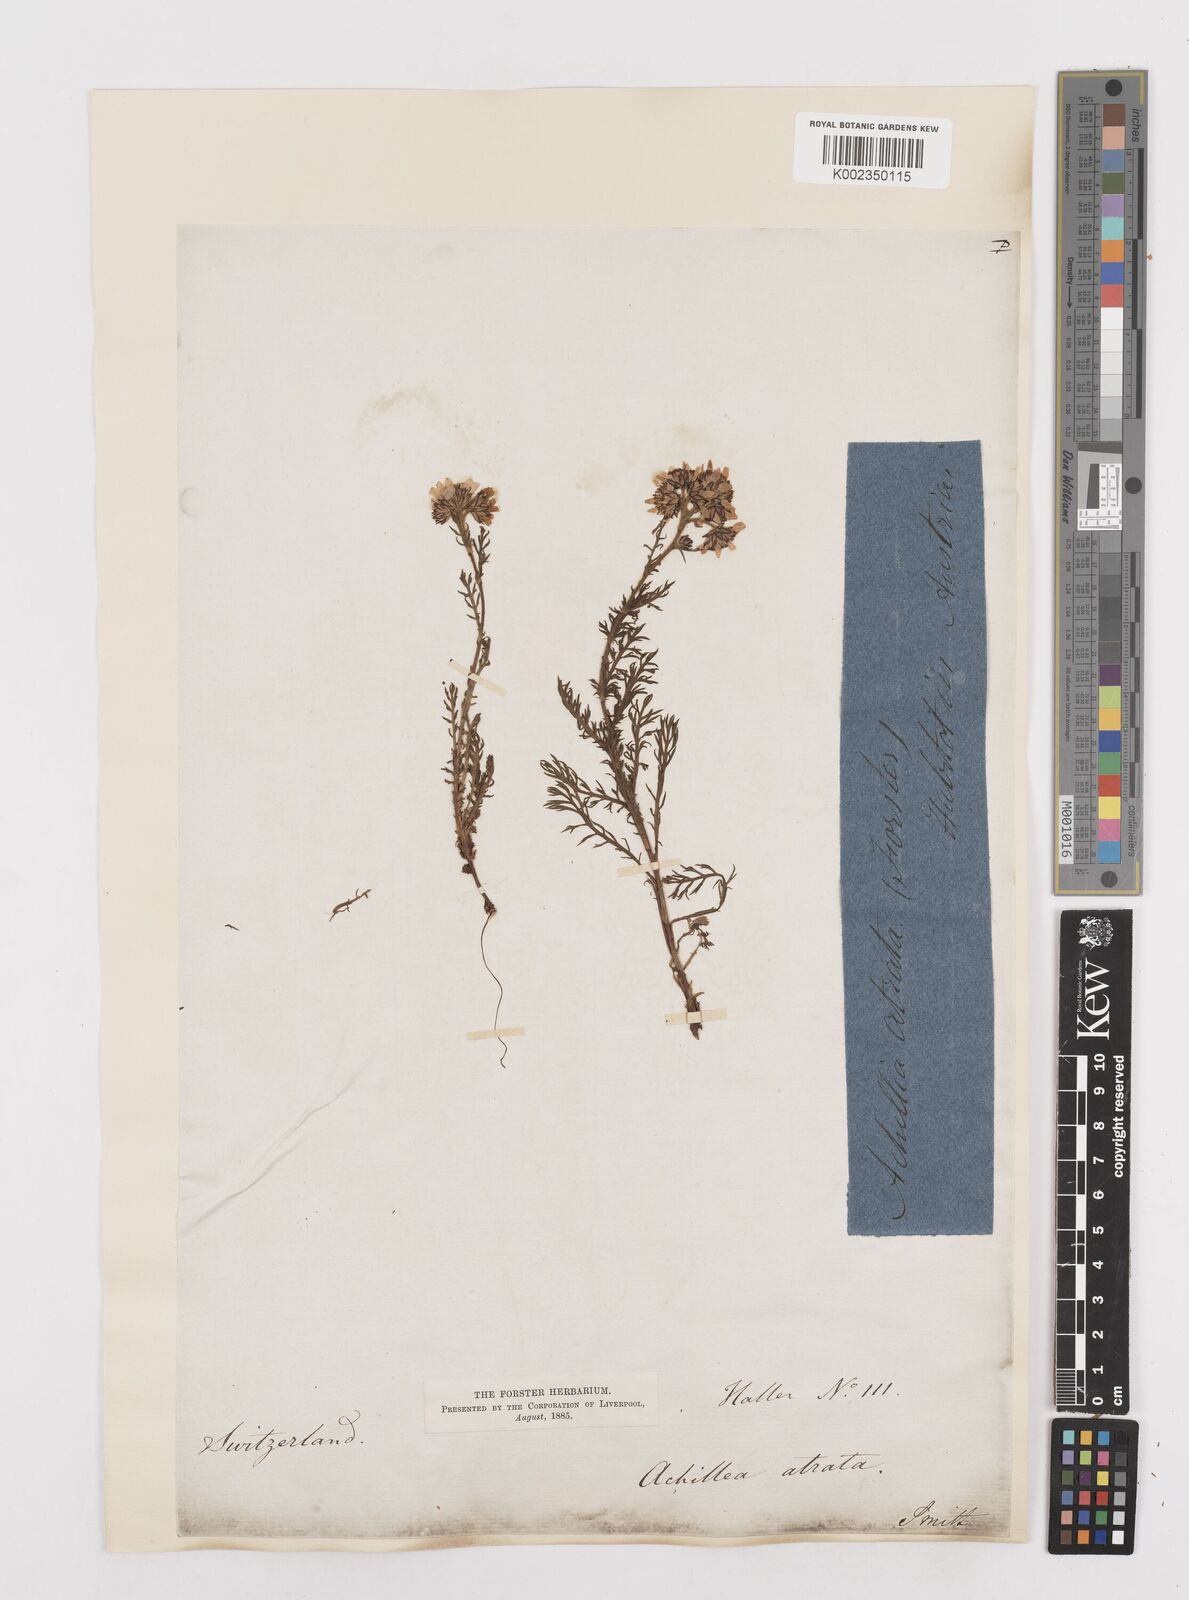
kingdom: Plantae
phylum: Tracheophyta
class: Magnoliopsida
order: Asterales
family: Asteraceae
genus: Achillea
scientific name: Achillea atrata
